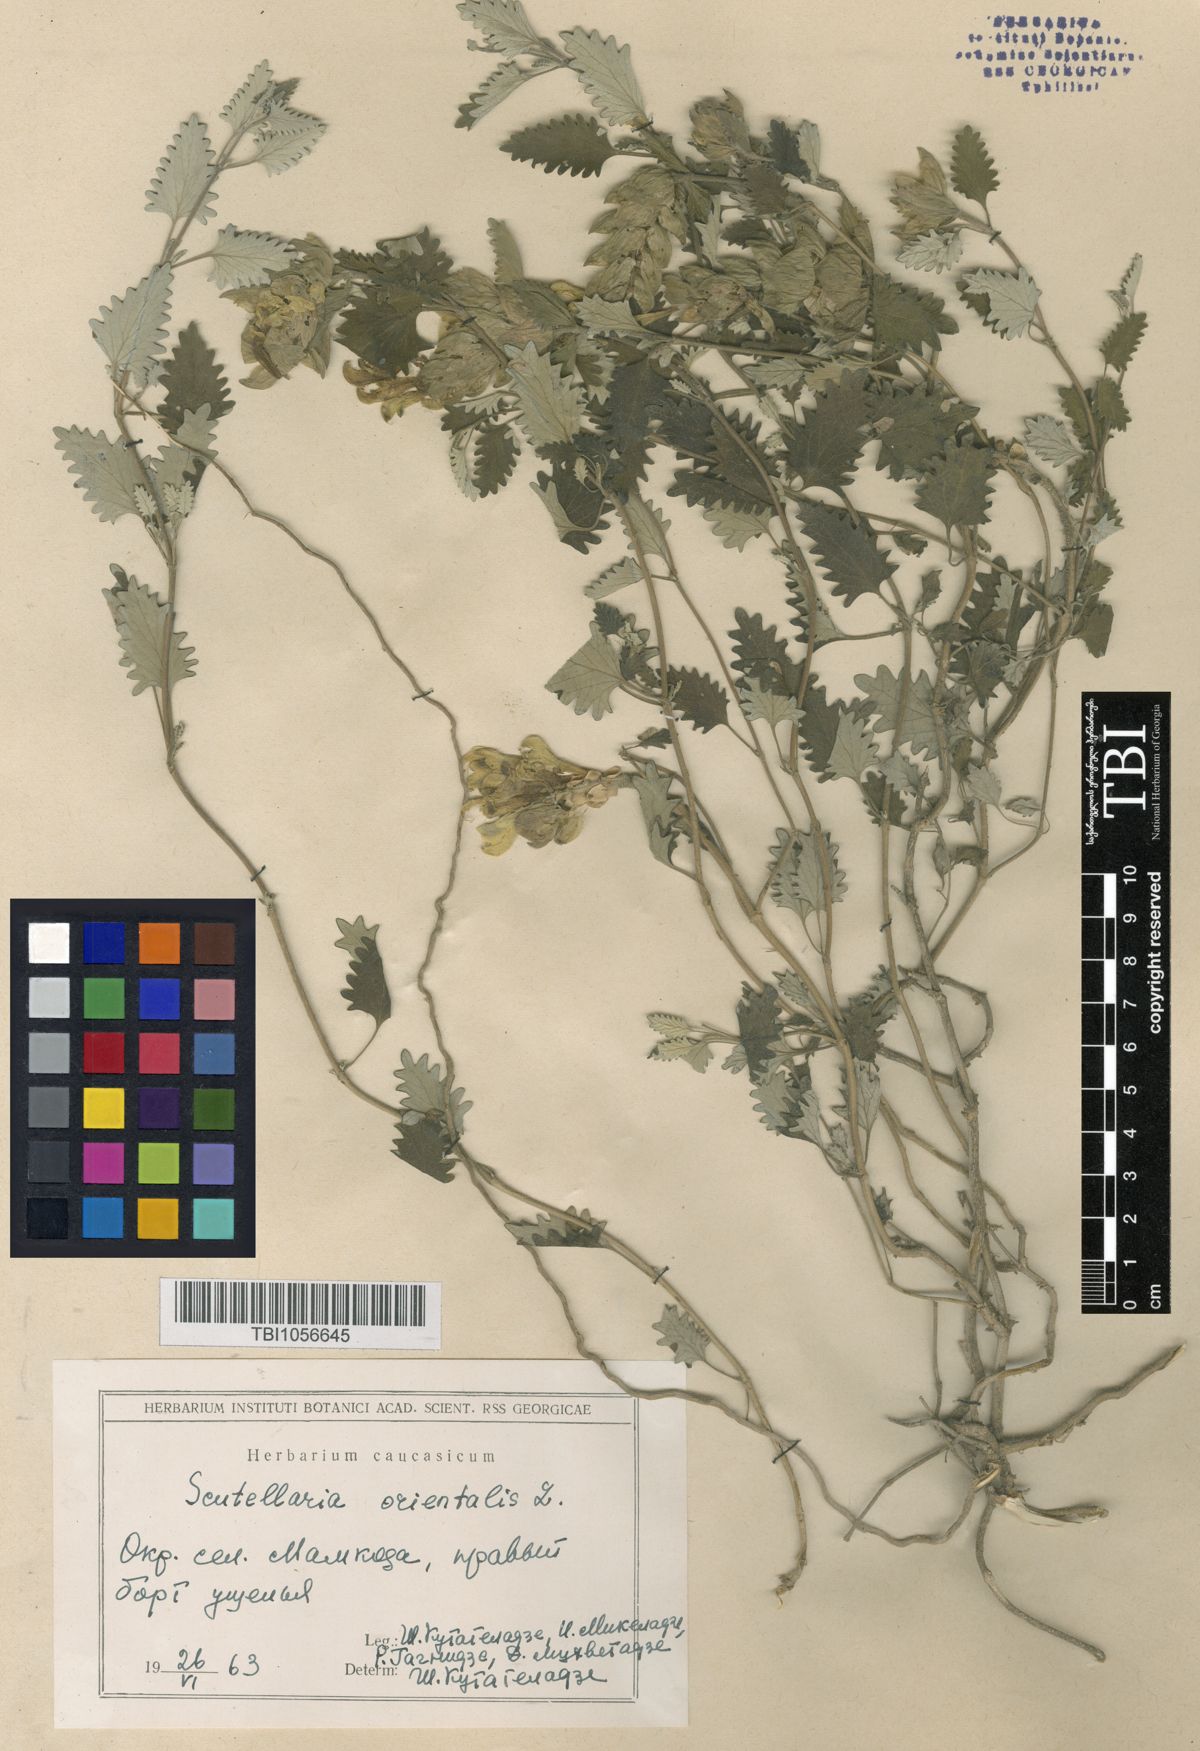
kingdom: Plantae
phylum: Tracheophyta
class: Magnoliopsida
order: Lamiales
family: Lamiaceae
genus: Scutellaria
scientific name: Scutellaria orientalis
